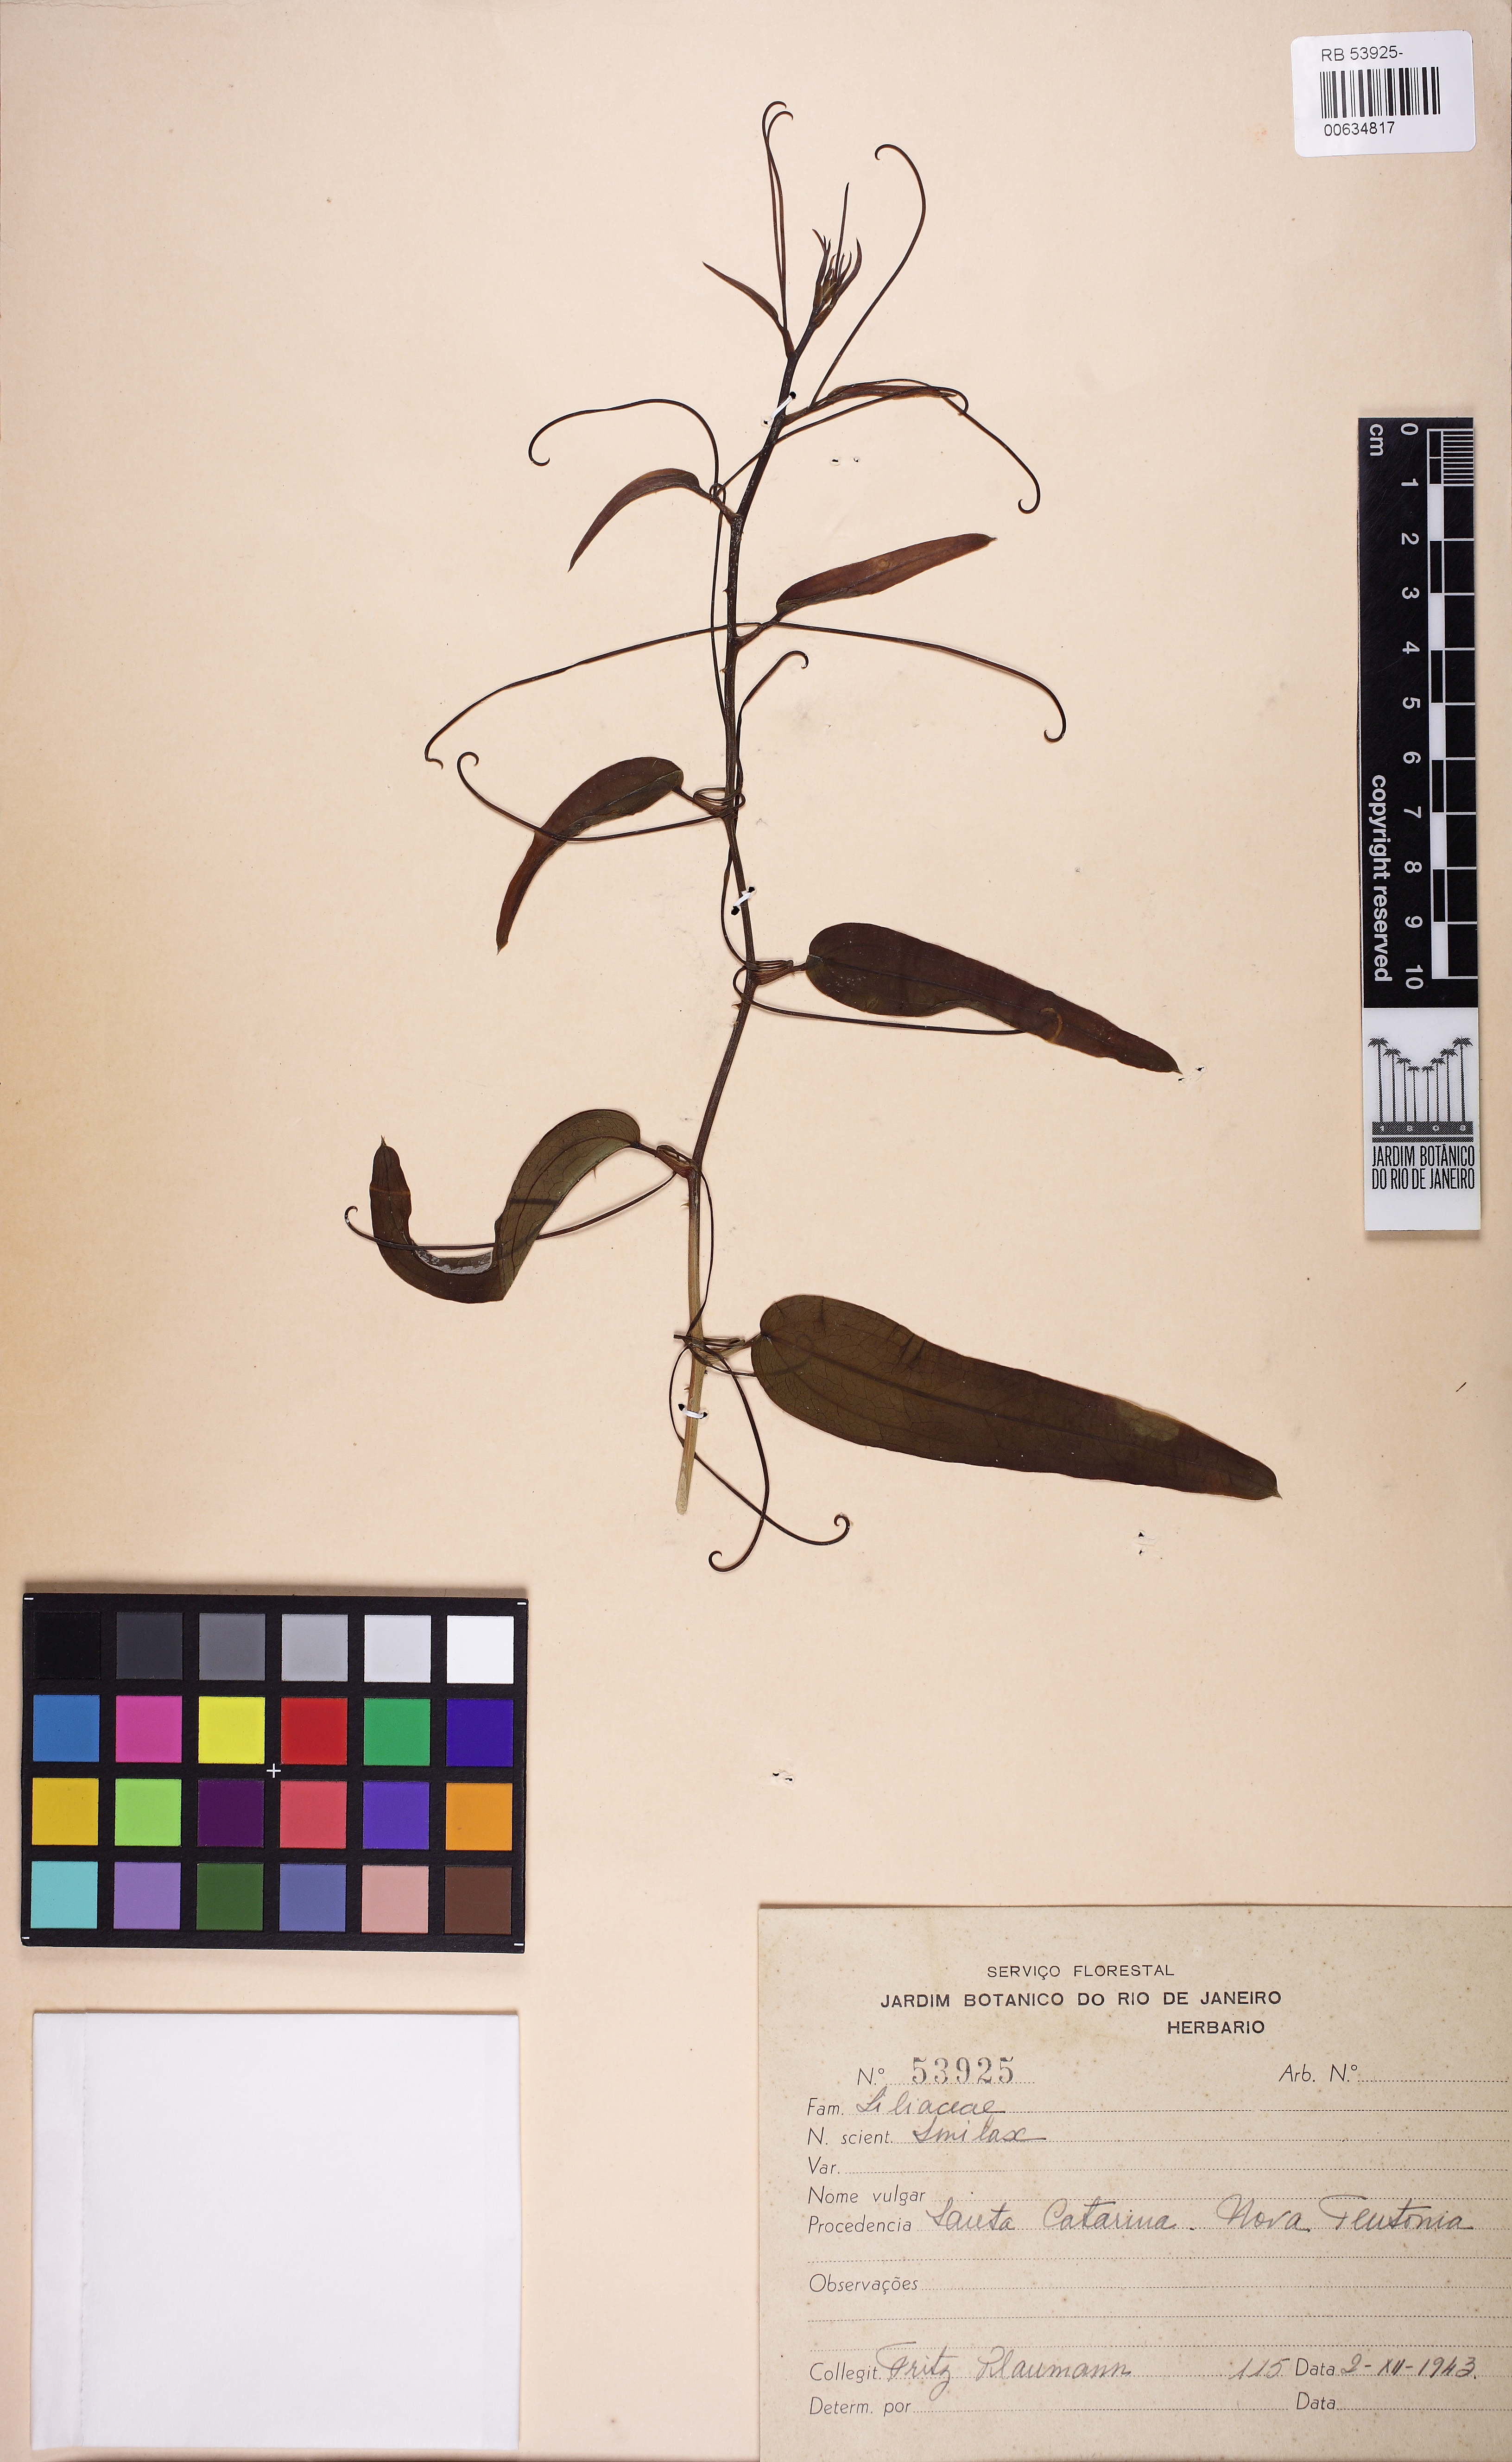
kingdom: Plantae
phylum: Tracheophyta
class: Liliopsida
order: Liliales
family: Smilacaceae
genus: Smilax
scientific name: Smilax
